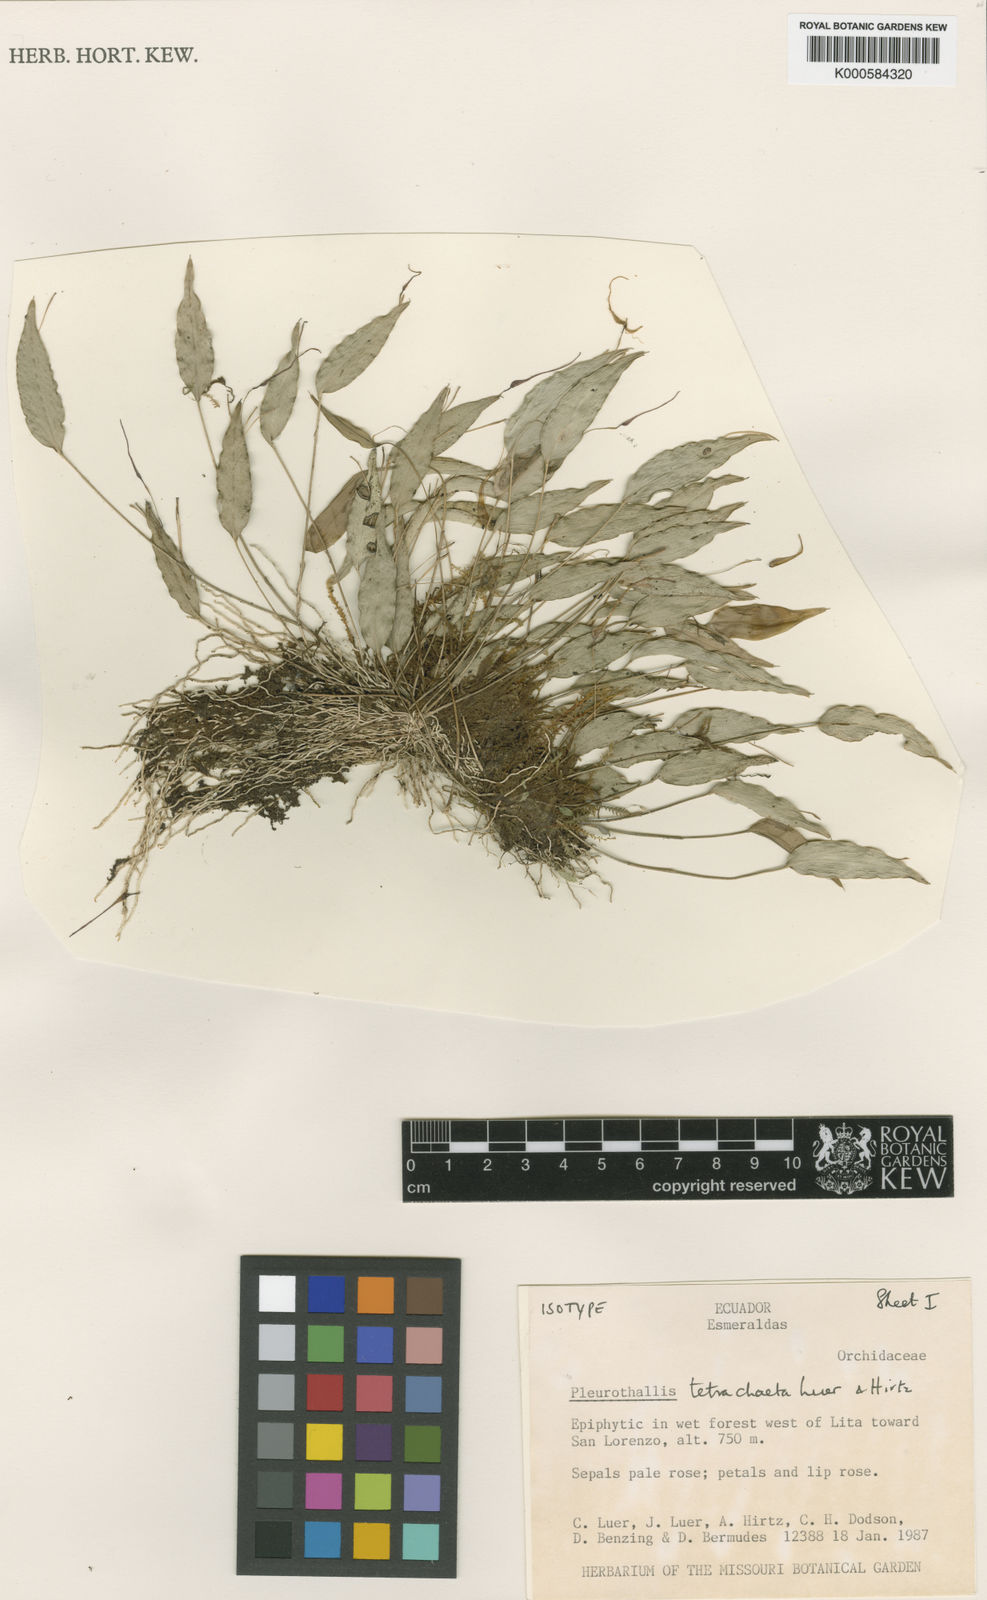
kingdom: Plantae
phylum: Tracheophyta
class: Liliopsida
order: Asparagales
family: Orchidaceae
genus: Lepanthes
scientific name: Lepanthes tetrachaeta
